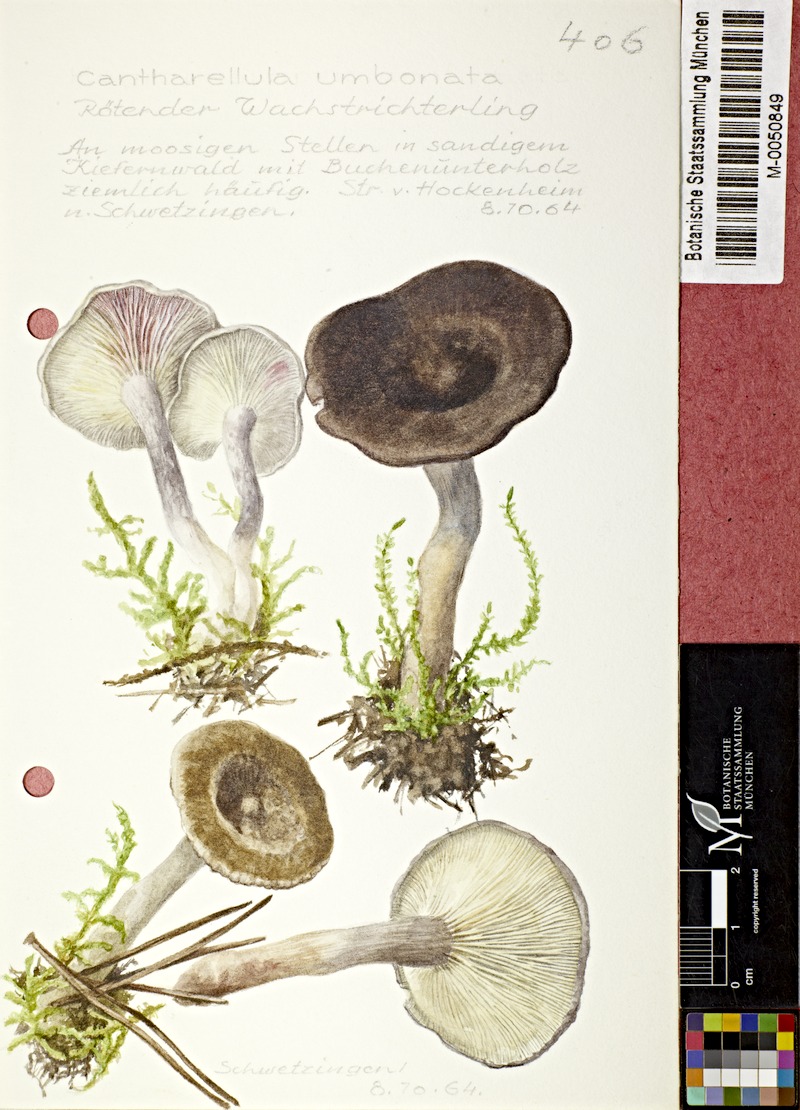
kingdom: Fungi
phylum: Basidiomycota
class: Agaricomycetes
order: Agaricales
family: Hygrophoraceae
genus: Cantharellula
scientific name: Cantharellula umbonata
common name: The humpback
